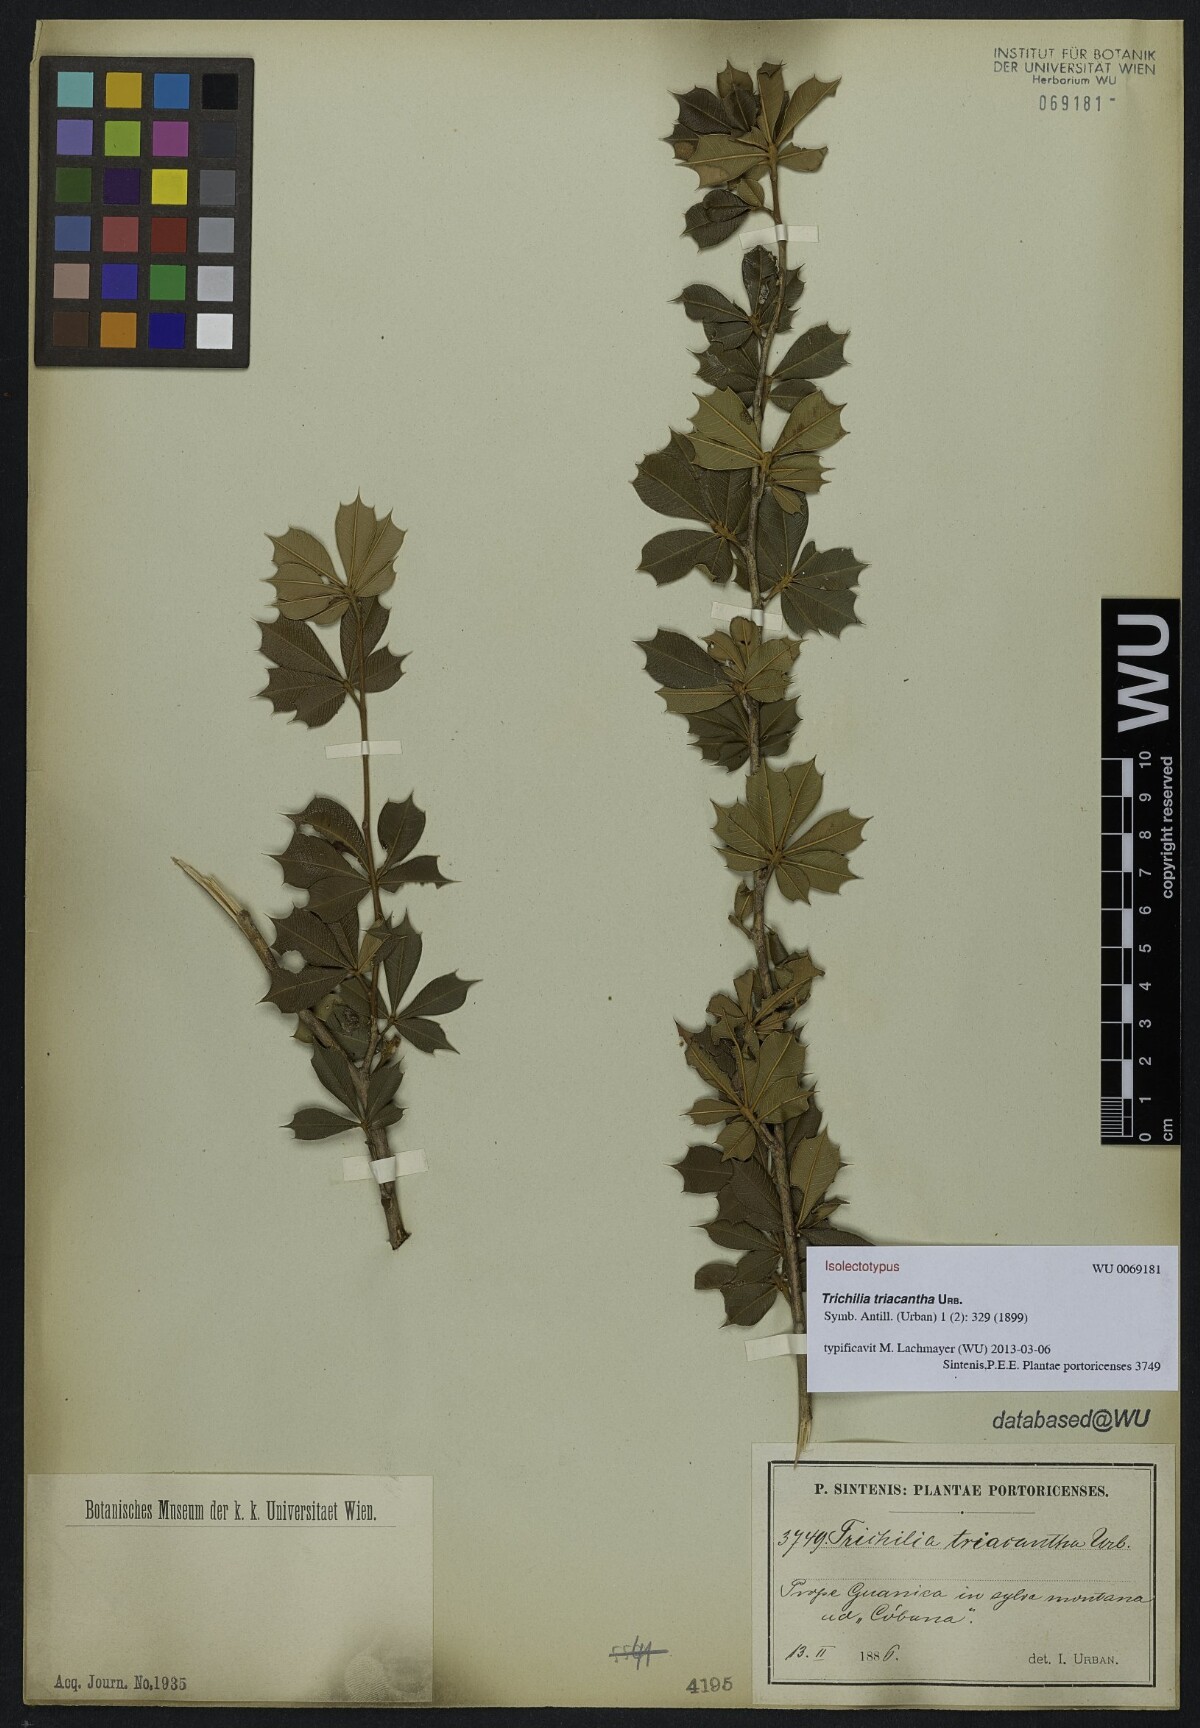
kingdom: Plantae
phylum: Tracheophyta
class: Magnoliopsida
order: Sapindales
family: Meliaceae
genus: Trichilia
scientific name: Trichilia triacantha
